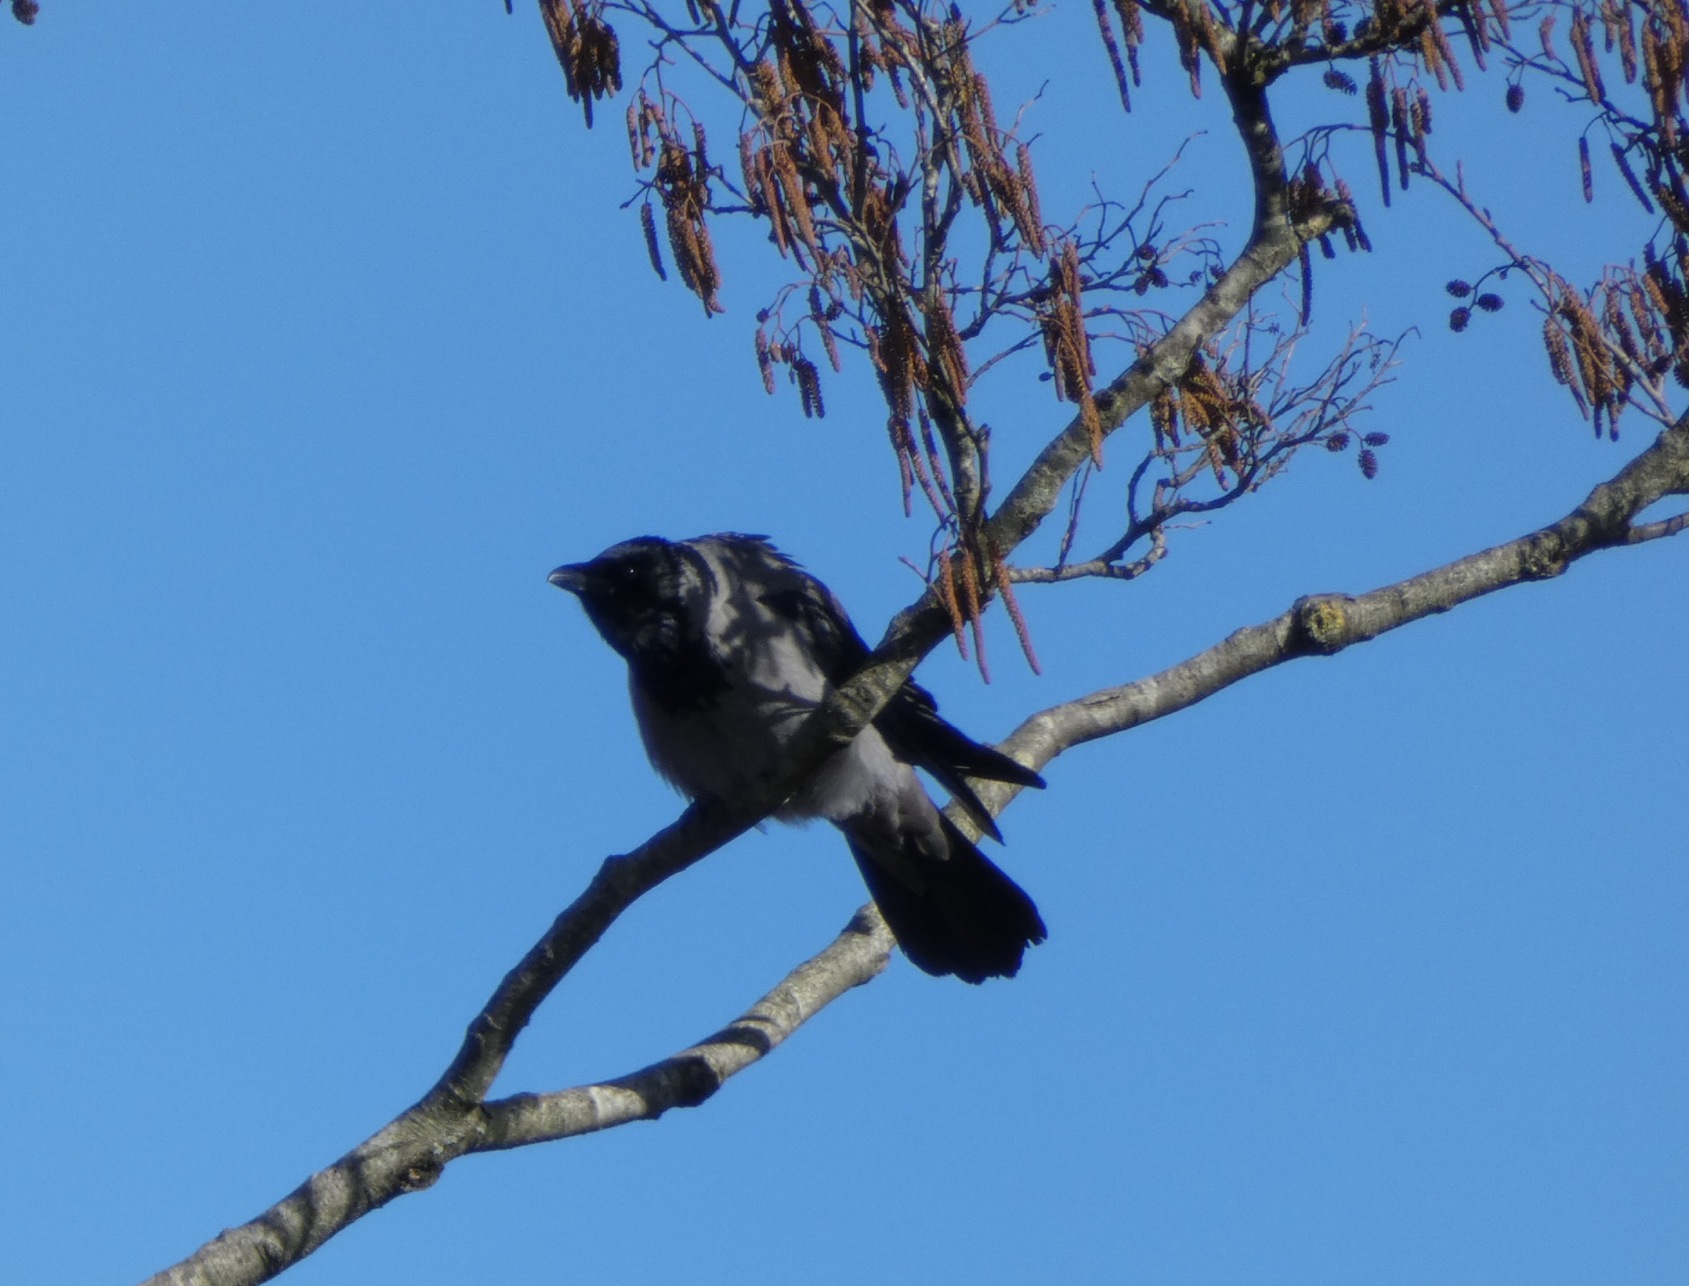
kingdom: Animalia
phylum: Chordata
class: Aves
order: Passeriformes
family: Corvidae
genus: Corvus
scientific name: Corvus cornix
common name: Gråkrage
